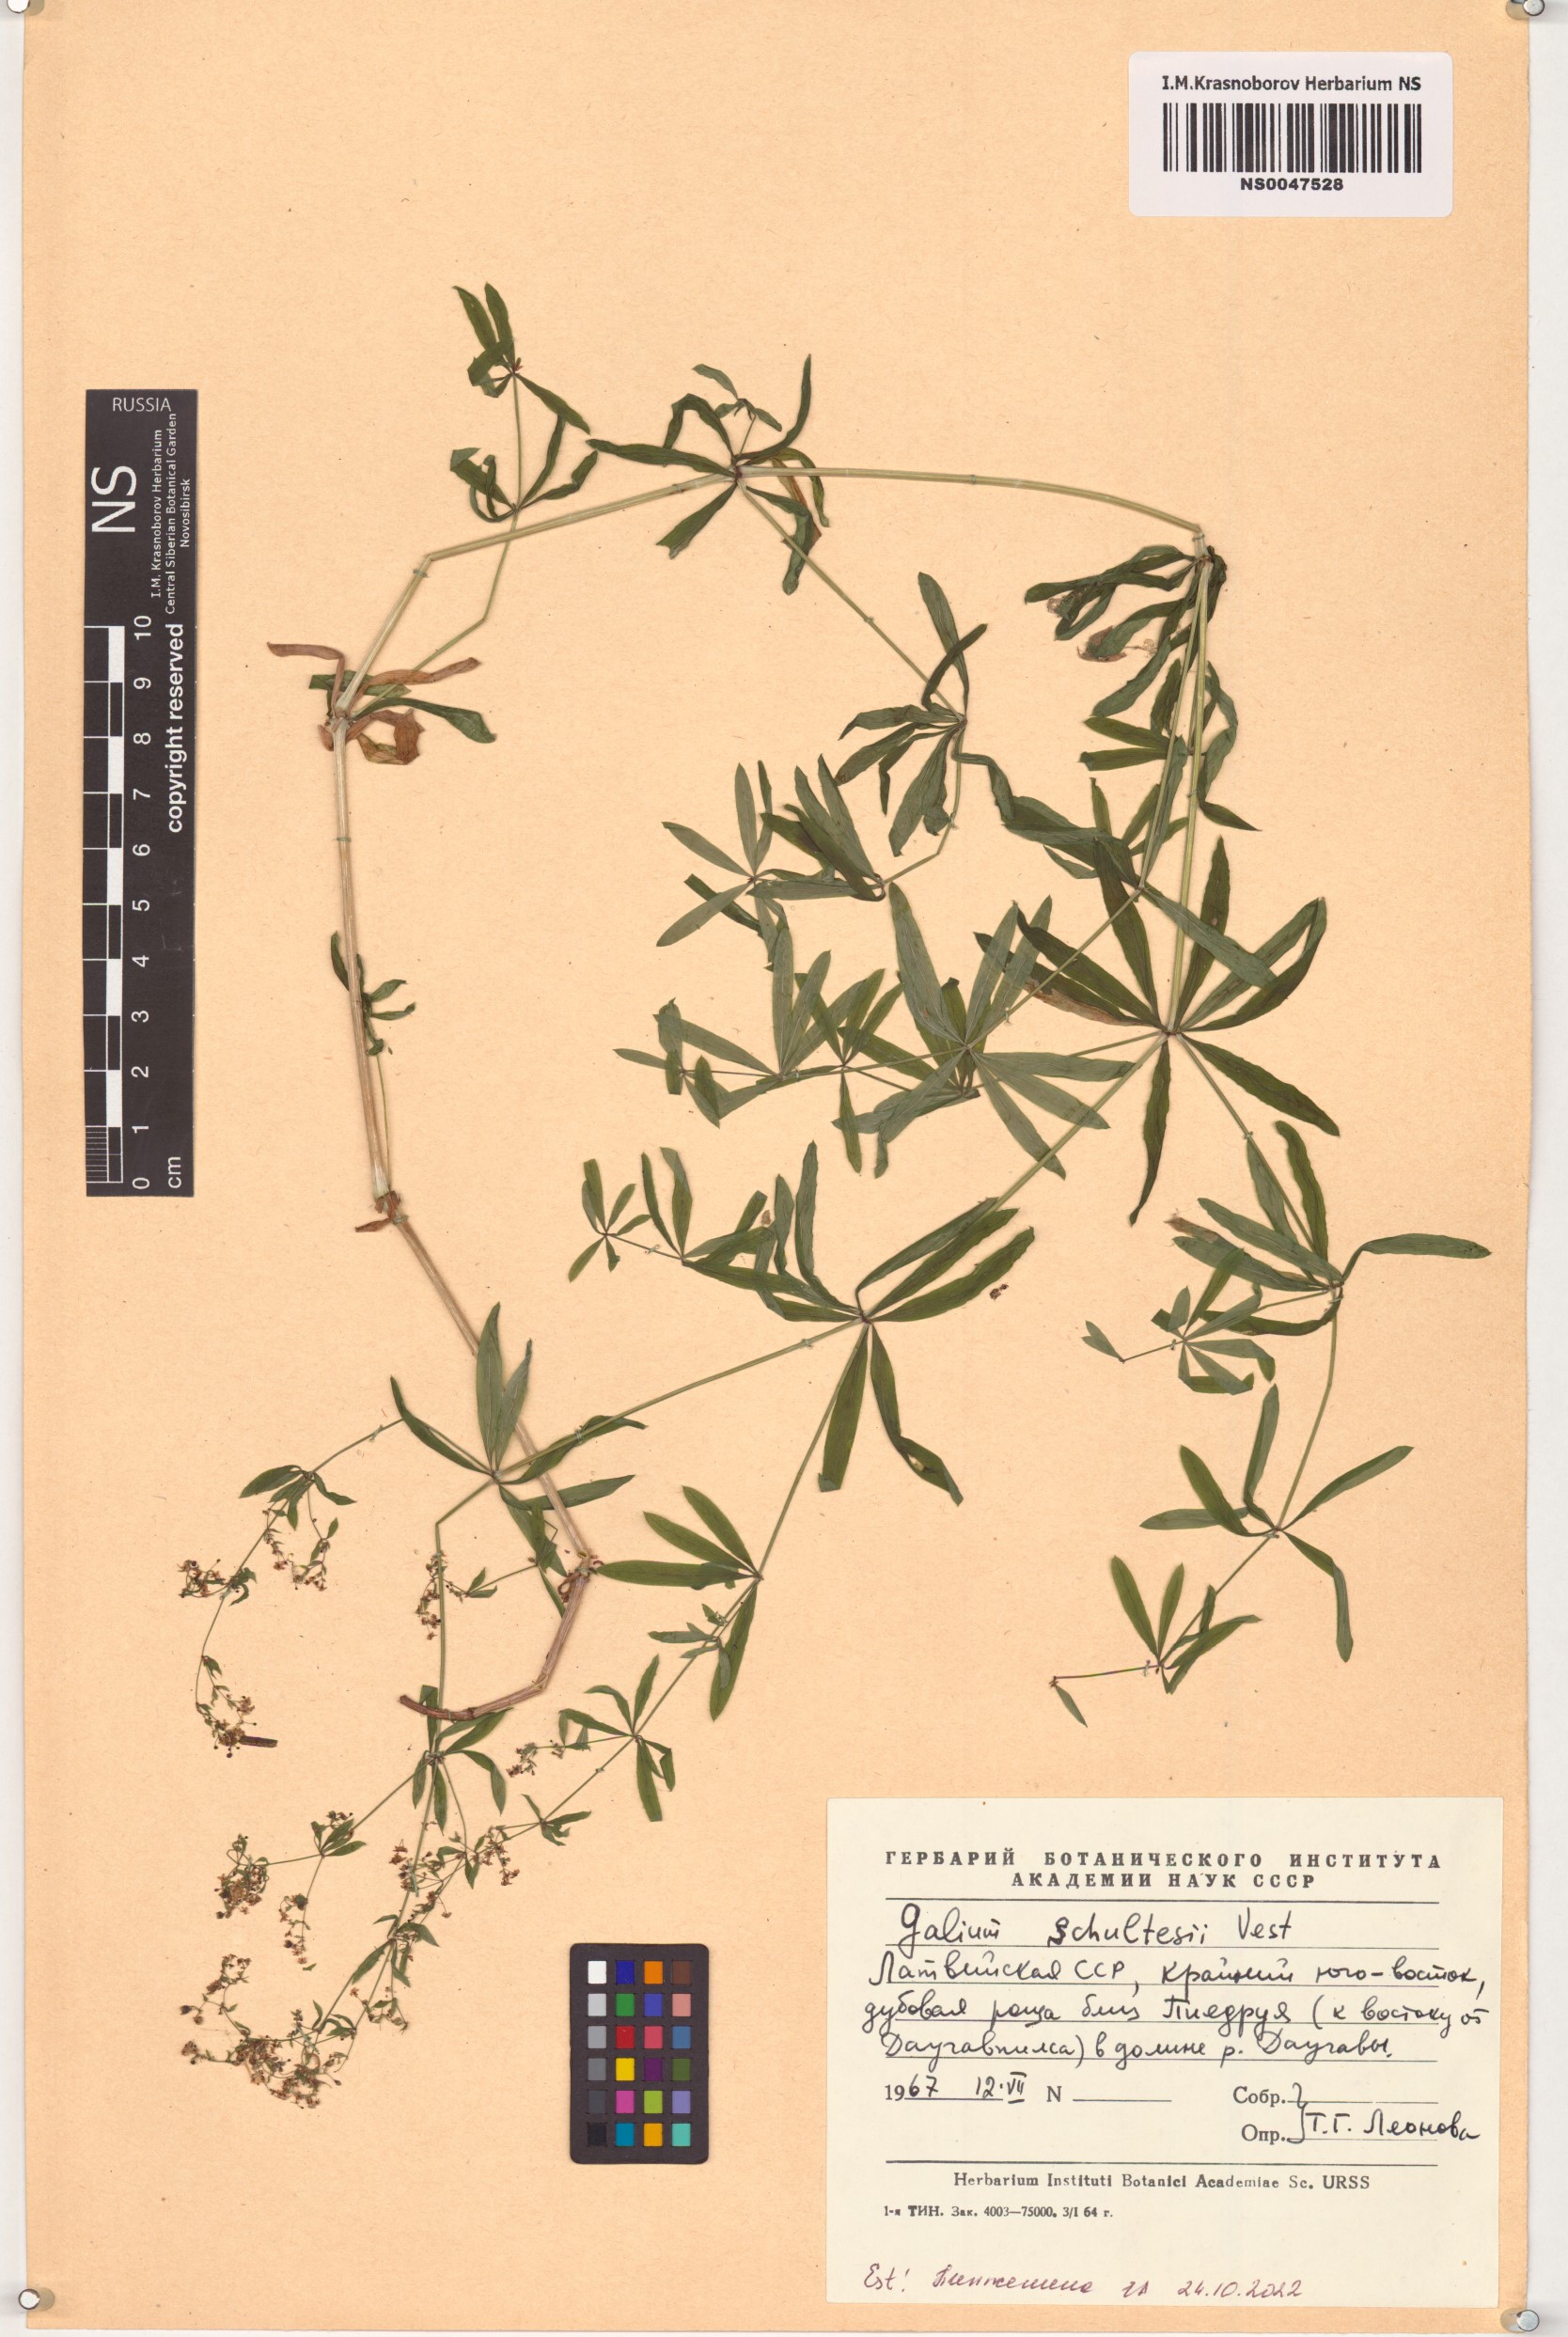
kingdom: Plantae
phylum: Tracheophyta
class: Magnoliopsida
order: Gentianales
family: Rubiaceae
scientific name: Rubiaceae
